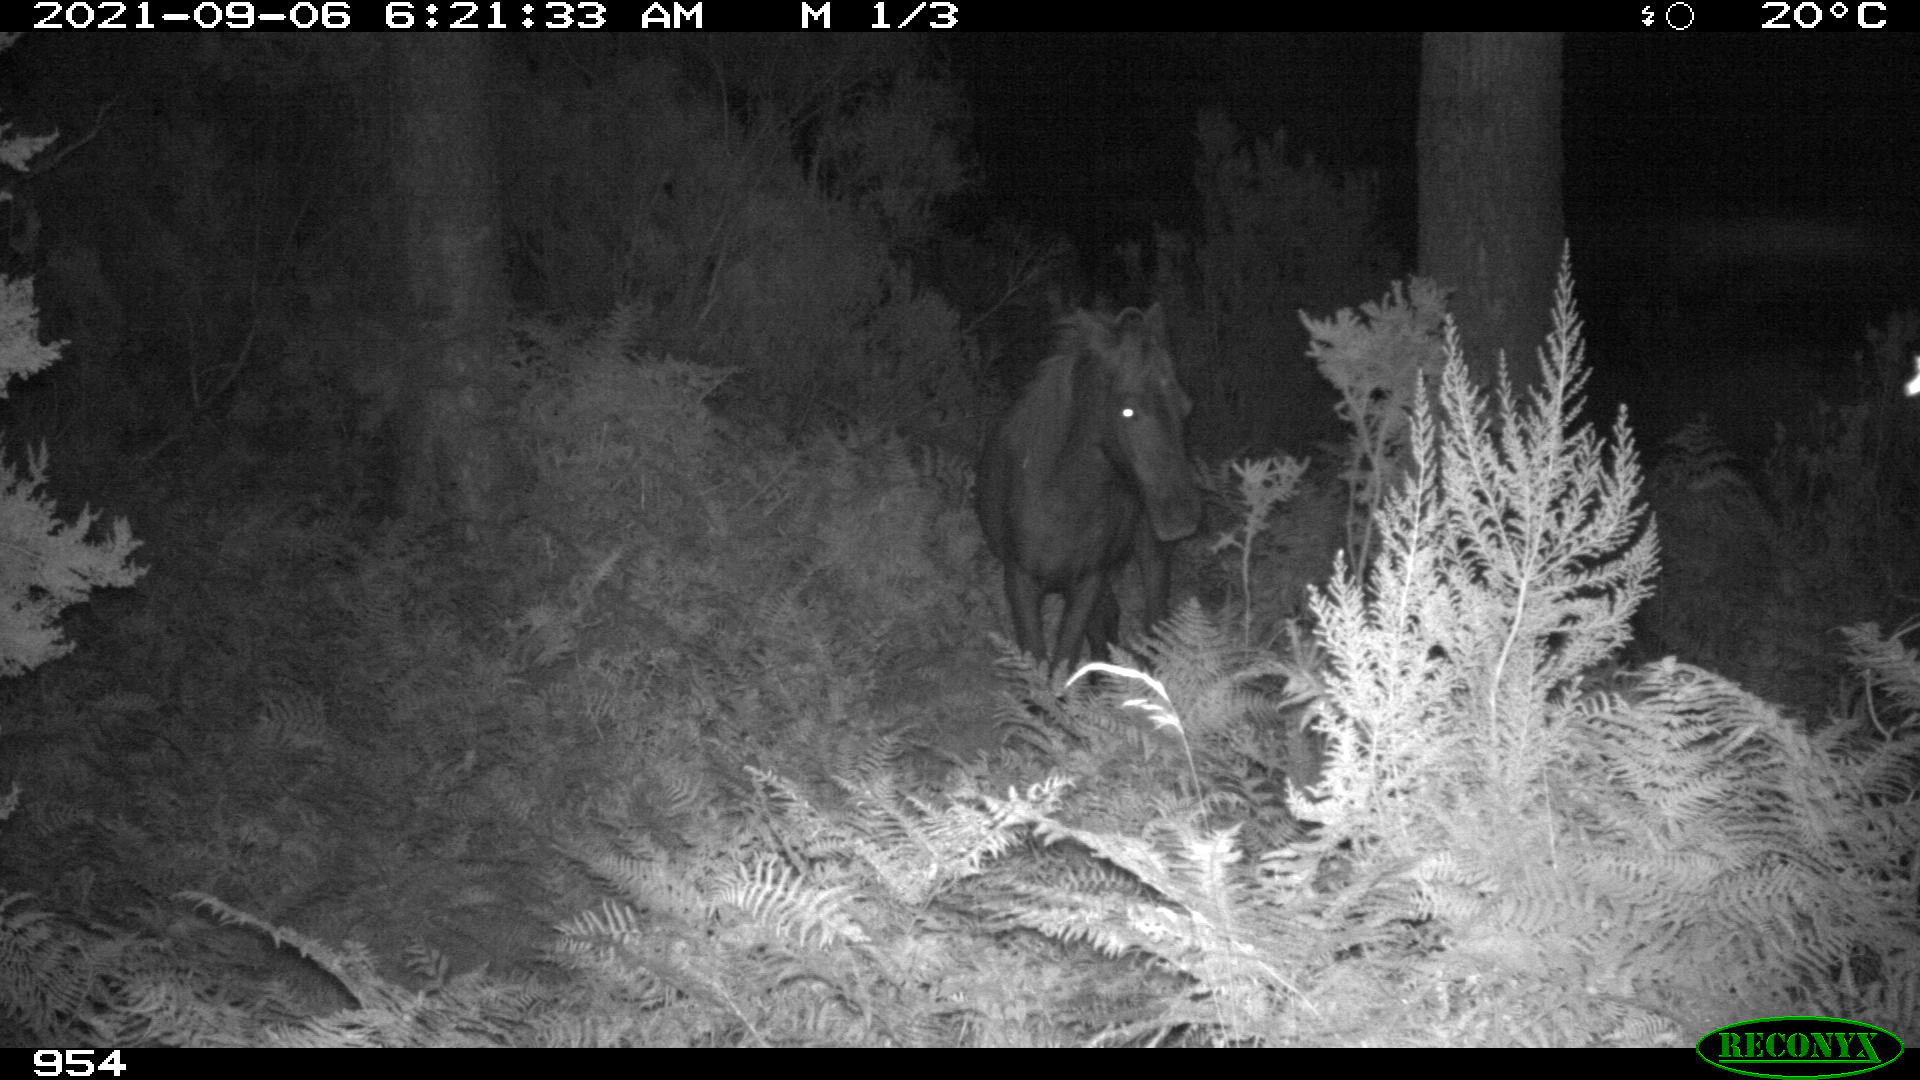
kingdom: Animalia
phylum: Chordata
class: Mammalia
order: Perissodactyla
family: Equidae
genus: Equus
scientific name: Equus caballus
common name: Horse
